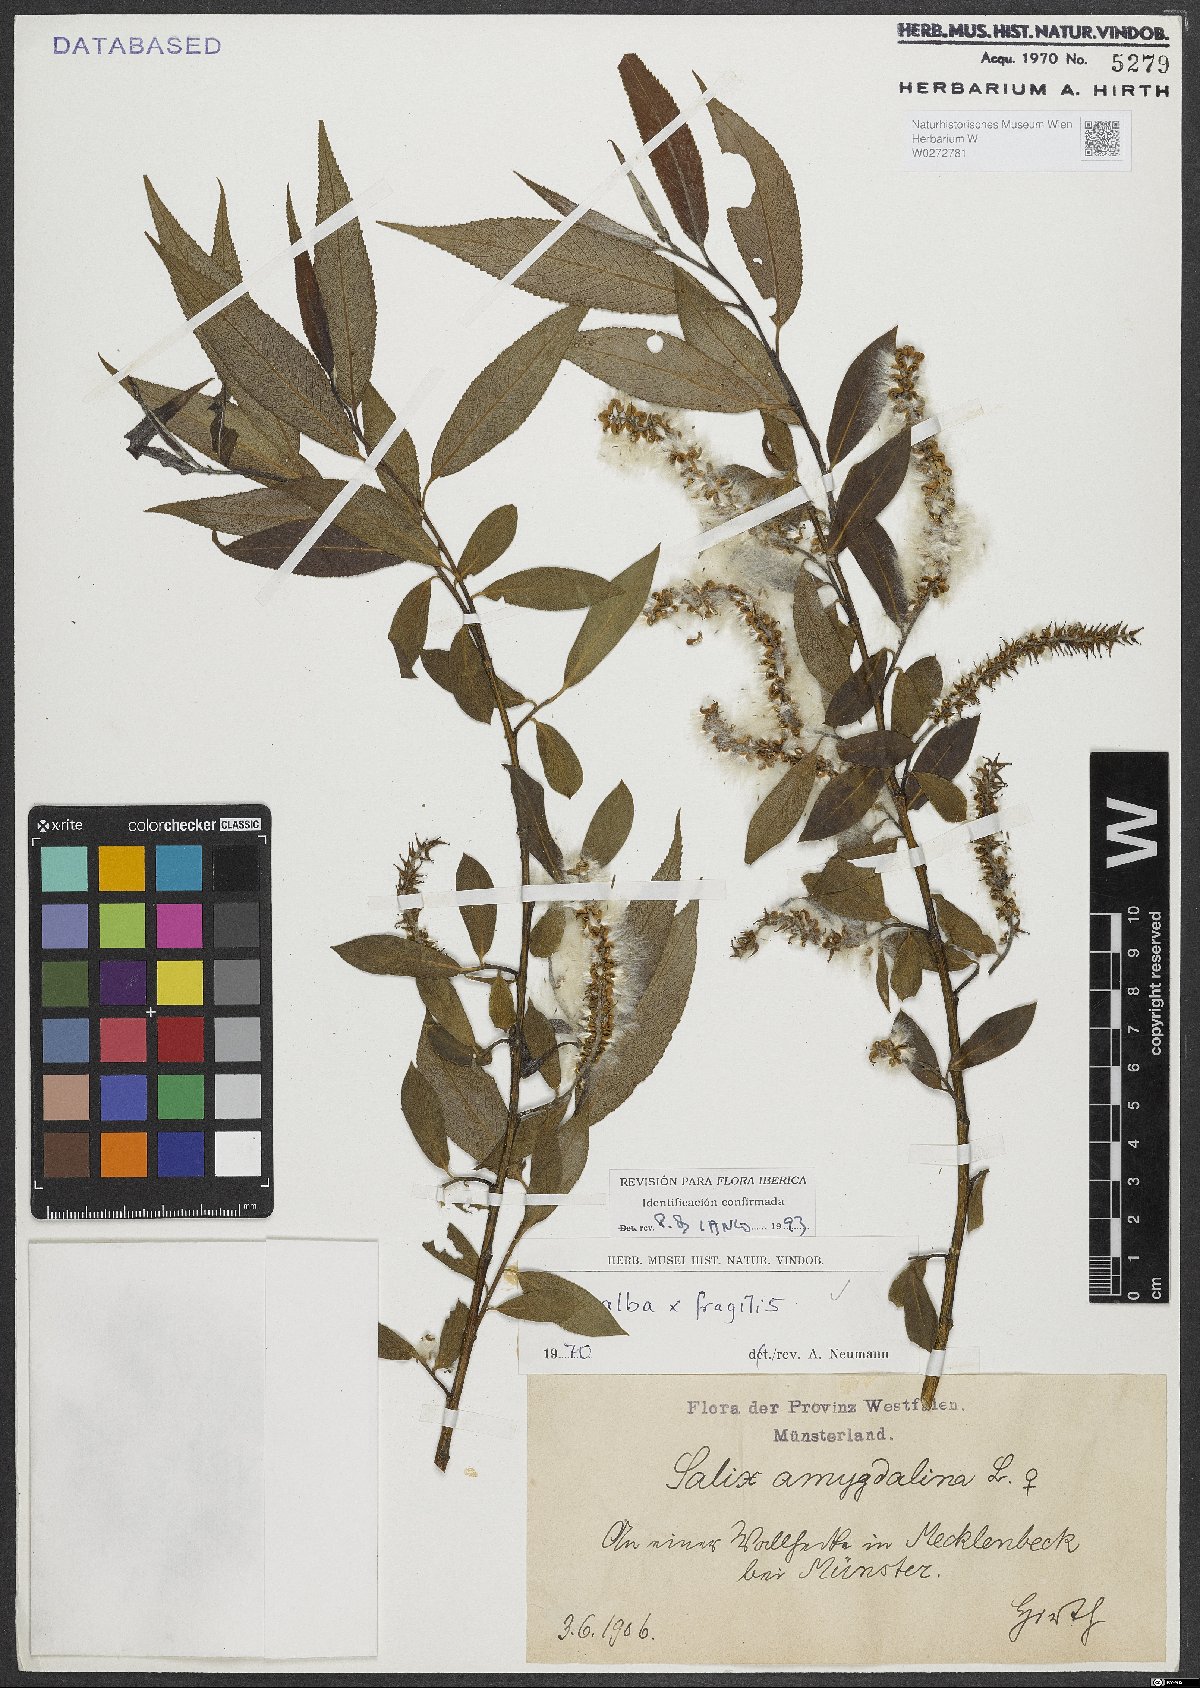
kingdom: Plantae
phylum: Tracheophyta
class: Magnoliopsida
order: Malpighiales
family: Salicaceae
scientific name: Salicaceae
